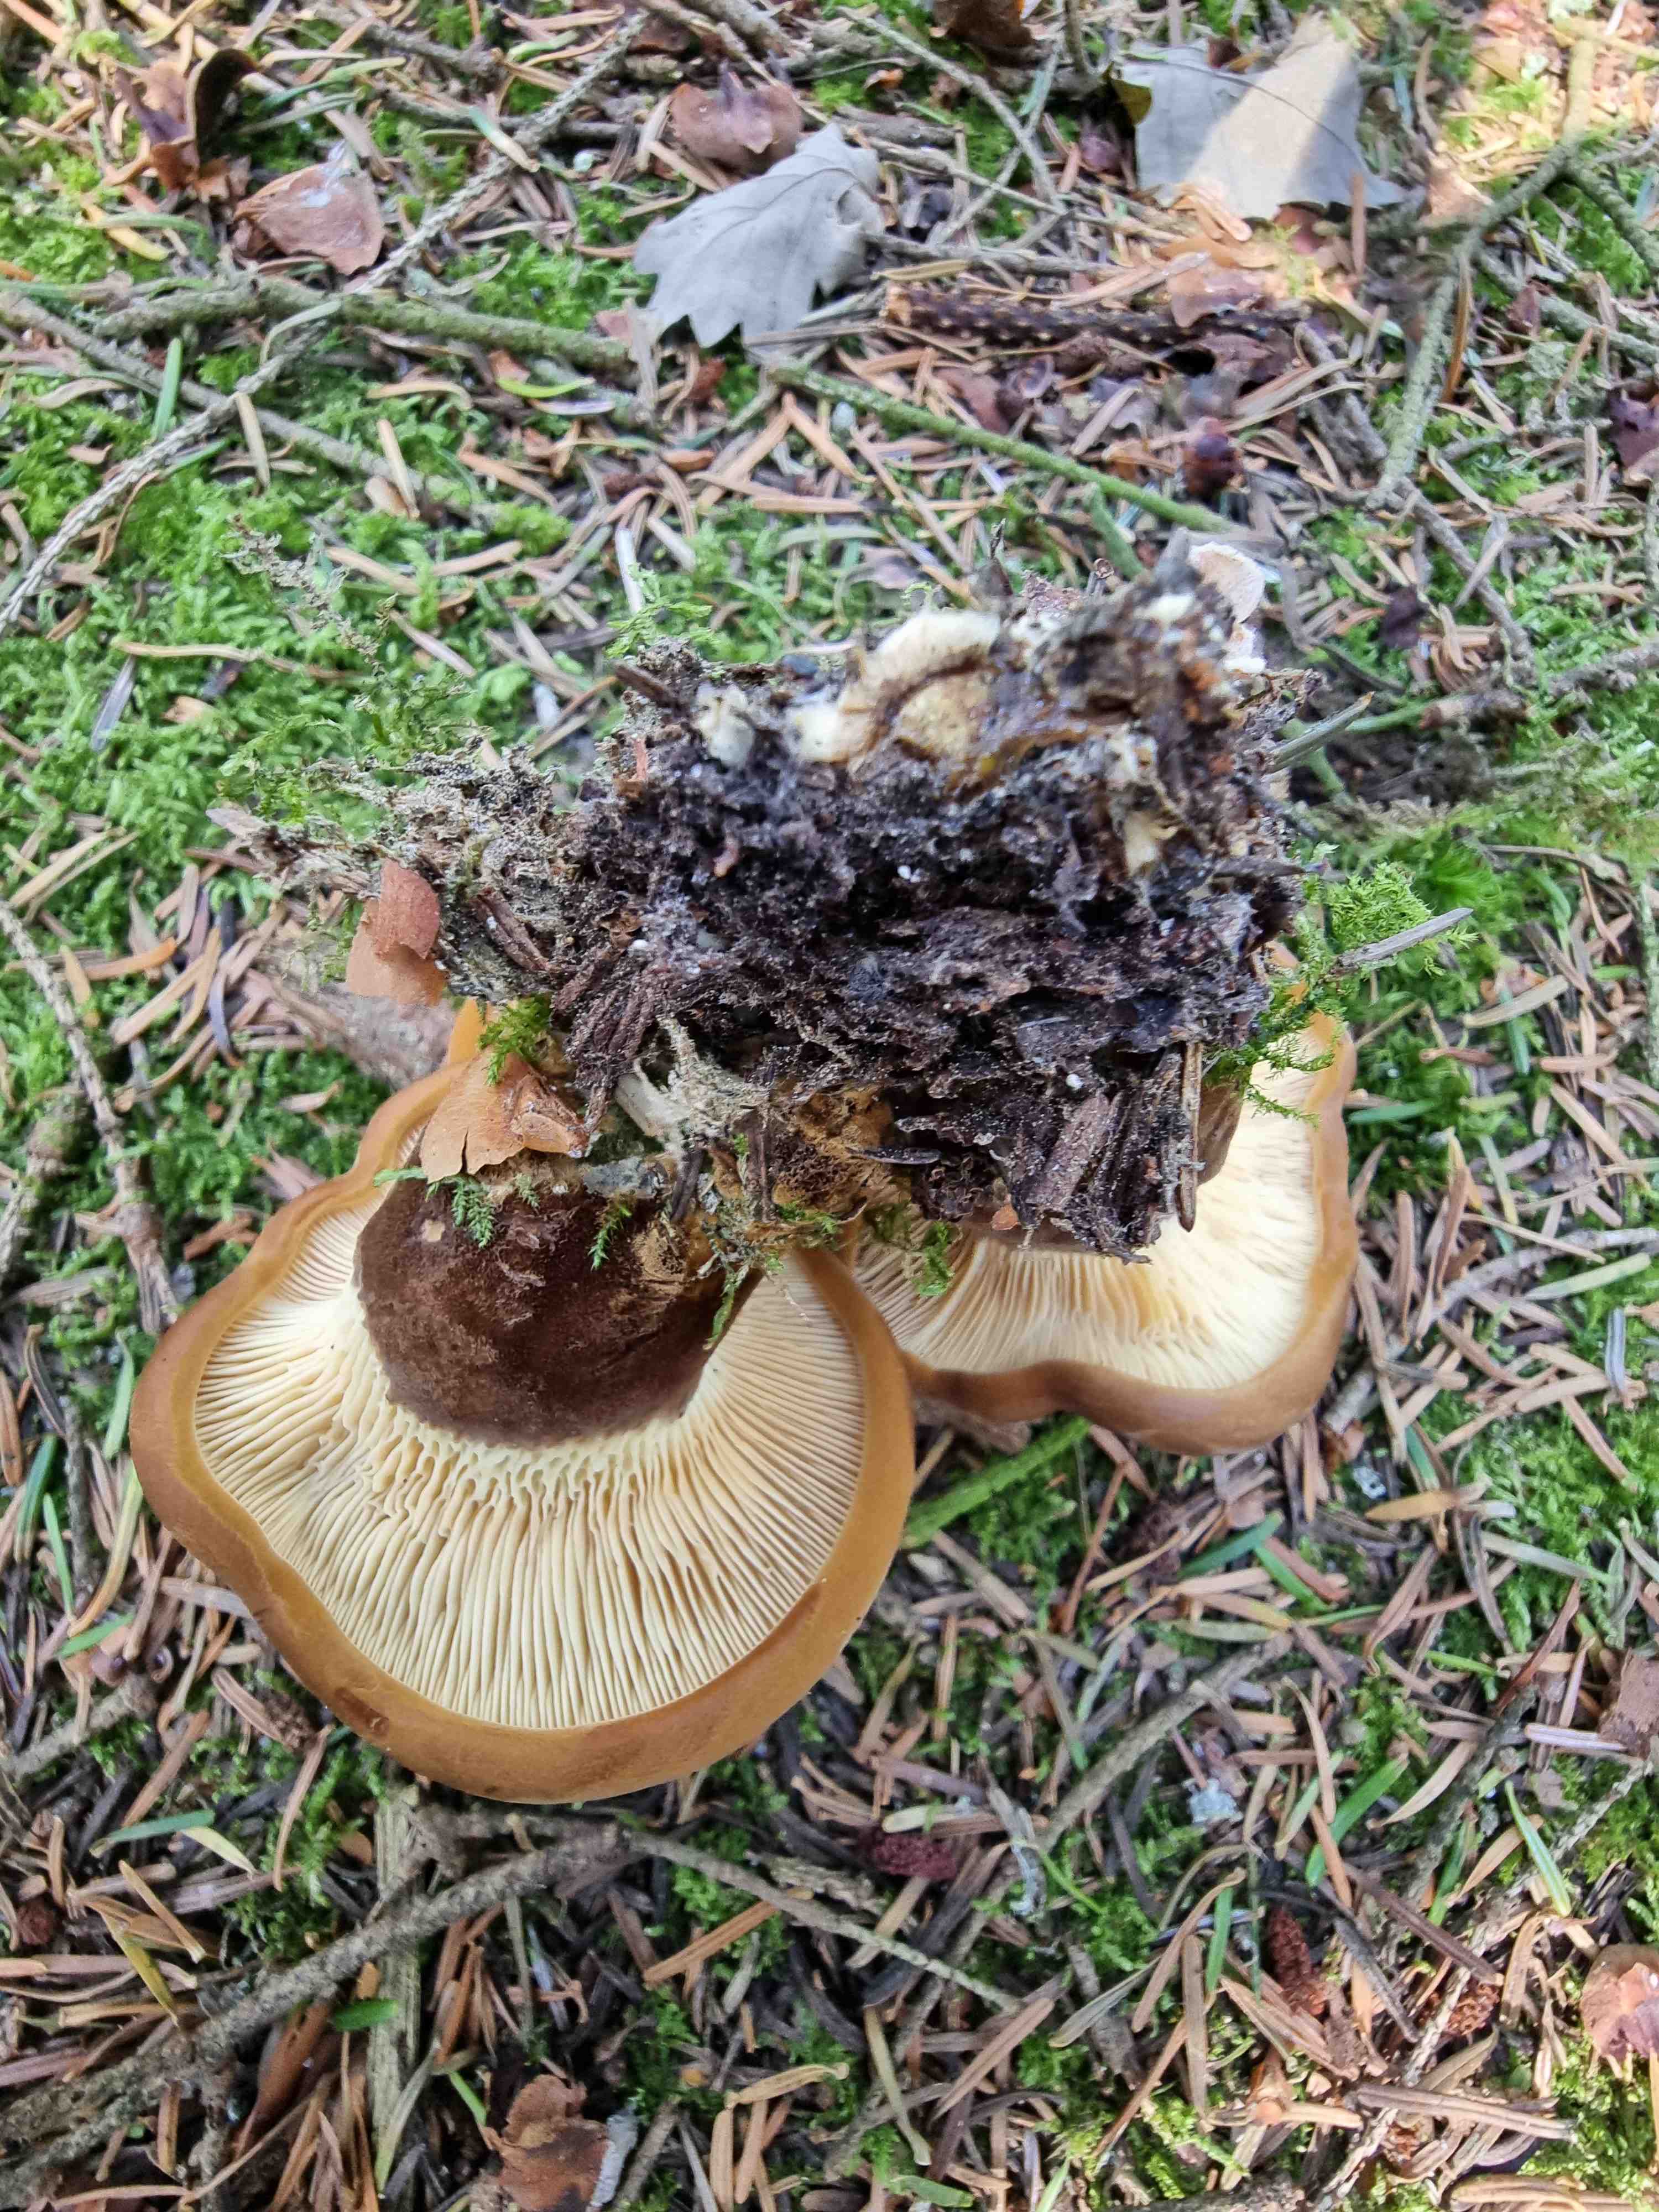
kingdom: Fungi
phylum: Basidiomycota
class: Agaricomycetes
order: Boletales
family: Tapinellaceae
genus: Tapinella
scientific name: Tapinella atrotomentosa
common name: sortfiltet viftesvamp
